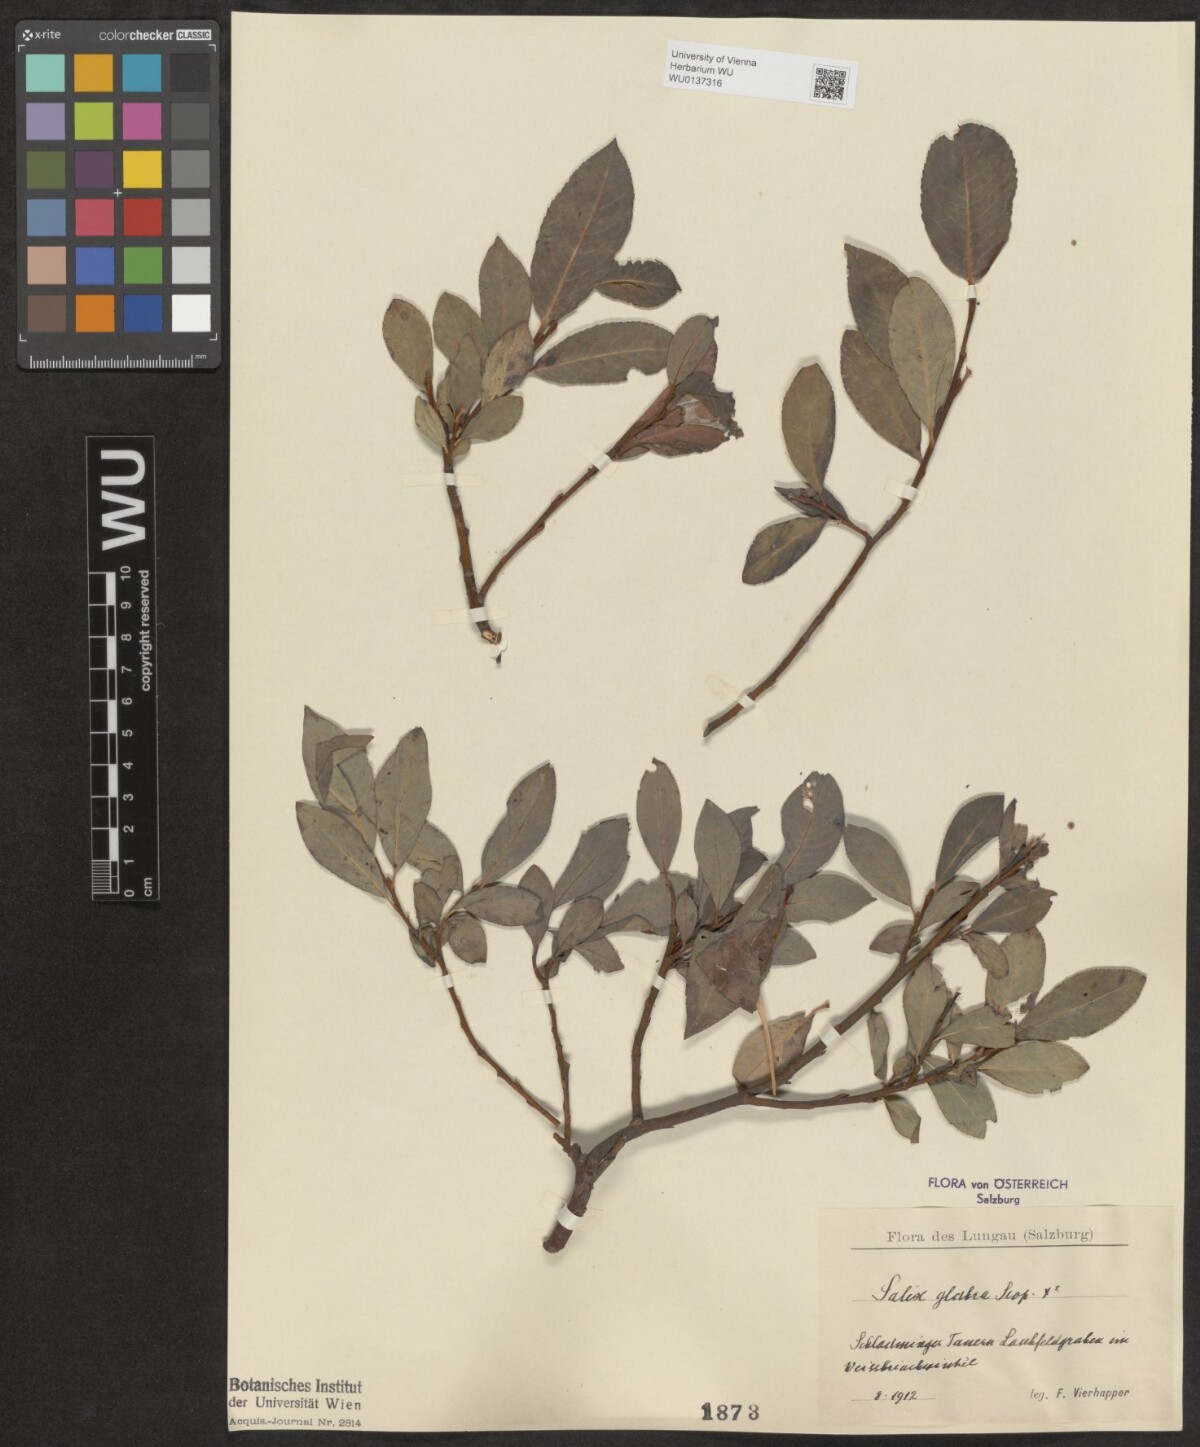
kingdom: Plantae
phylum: Tracheophyta
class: Magnoliopsida
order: Malpighiales
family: Salicaceae
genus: Salix
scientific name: Salix glabra
